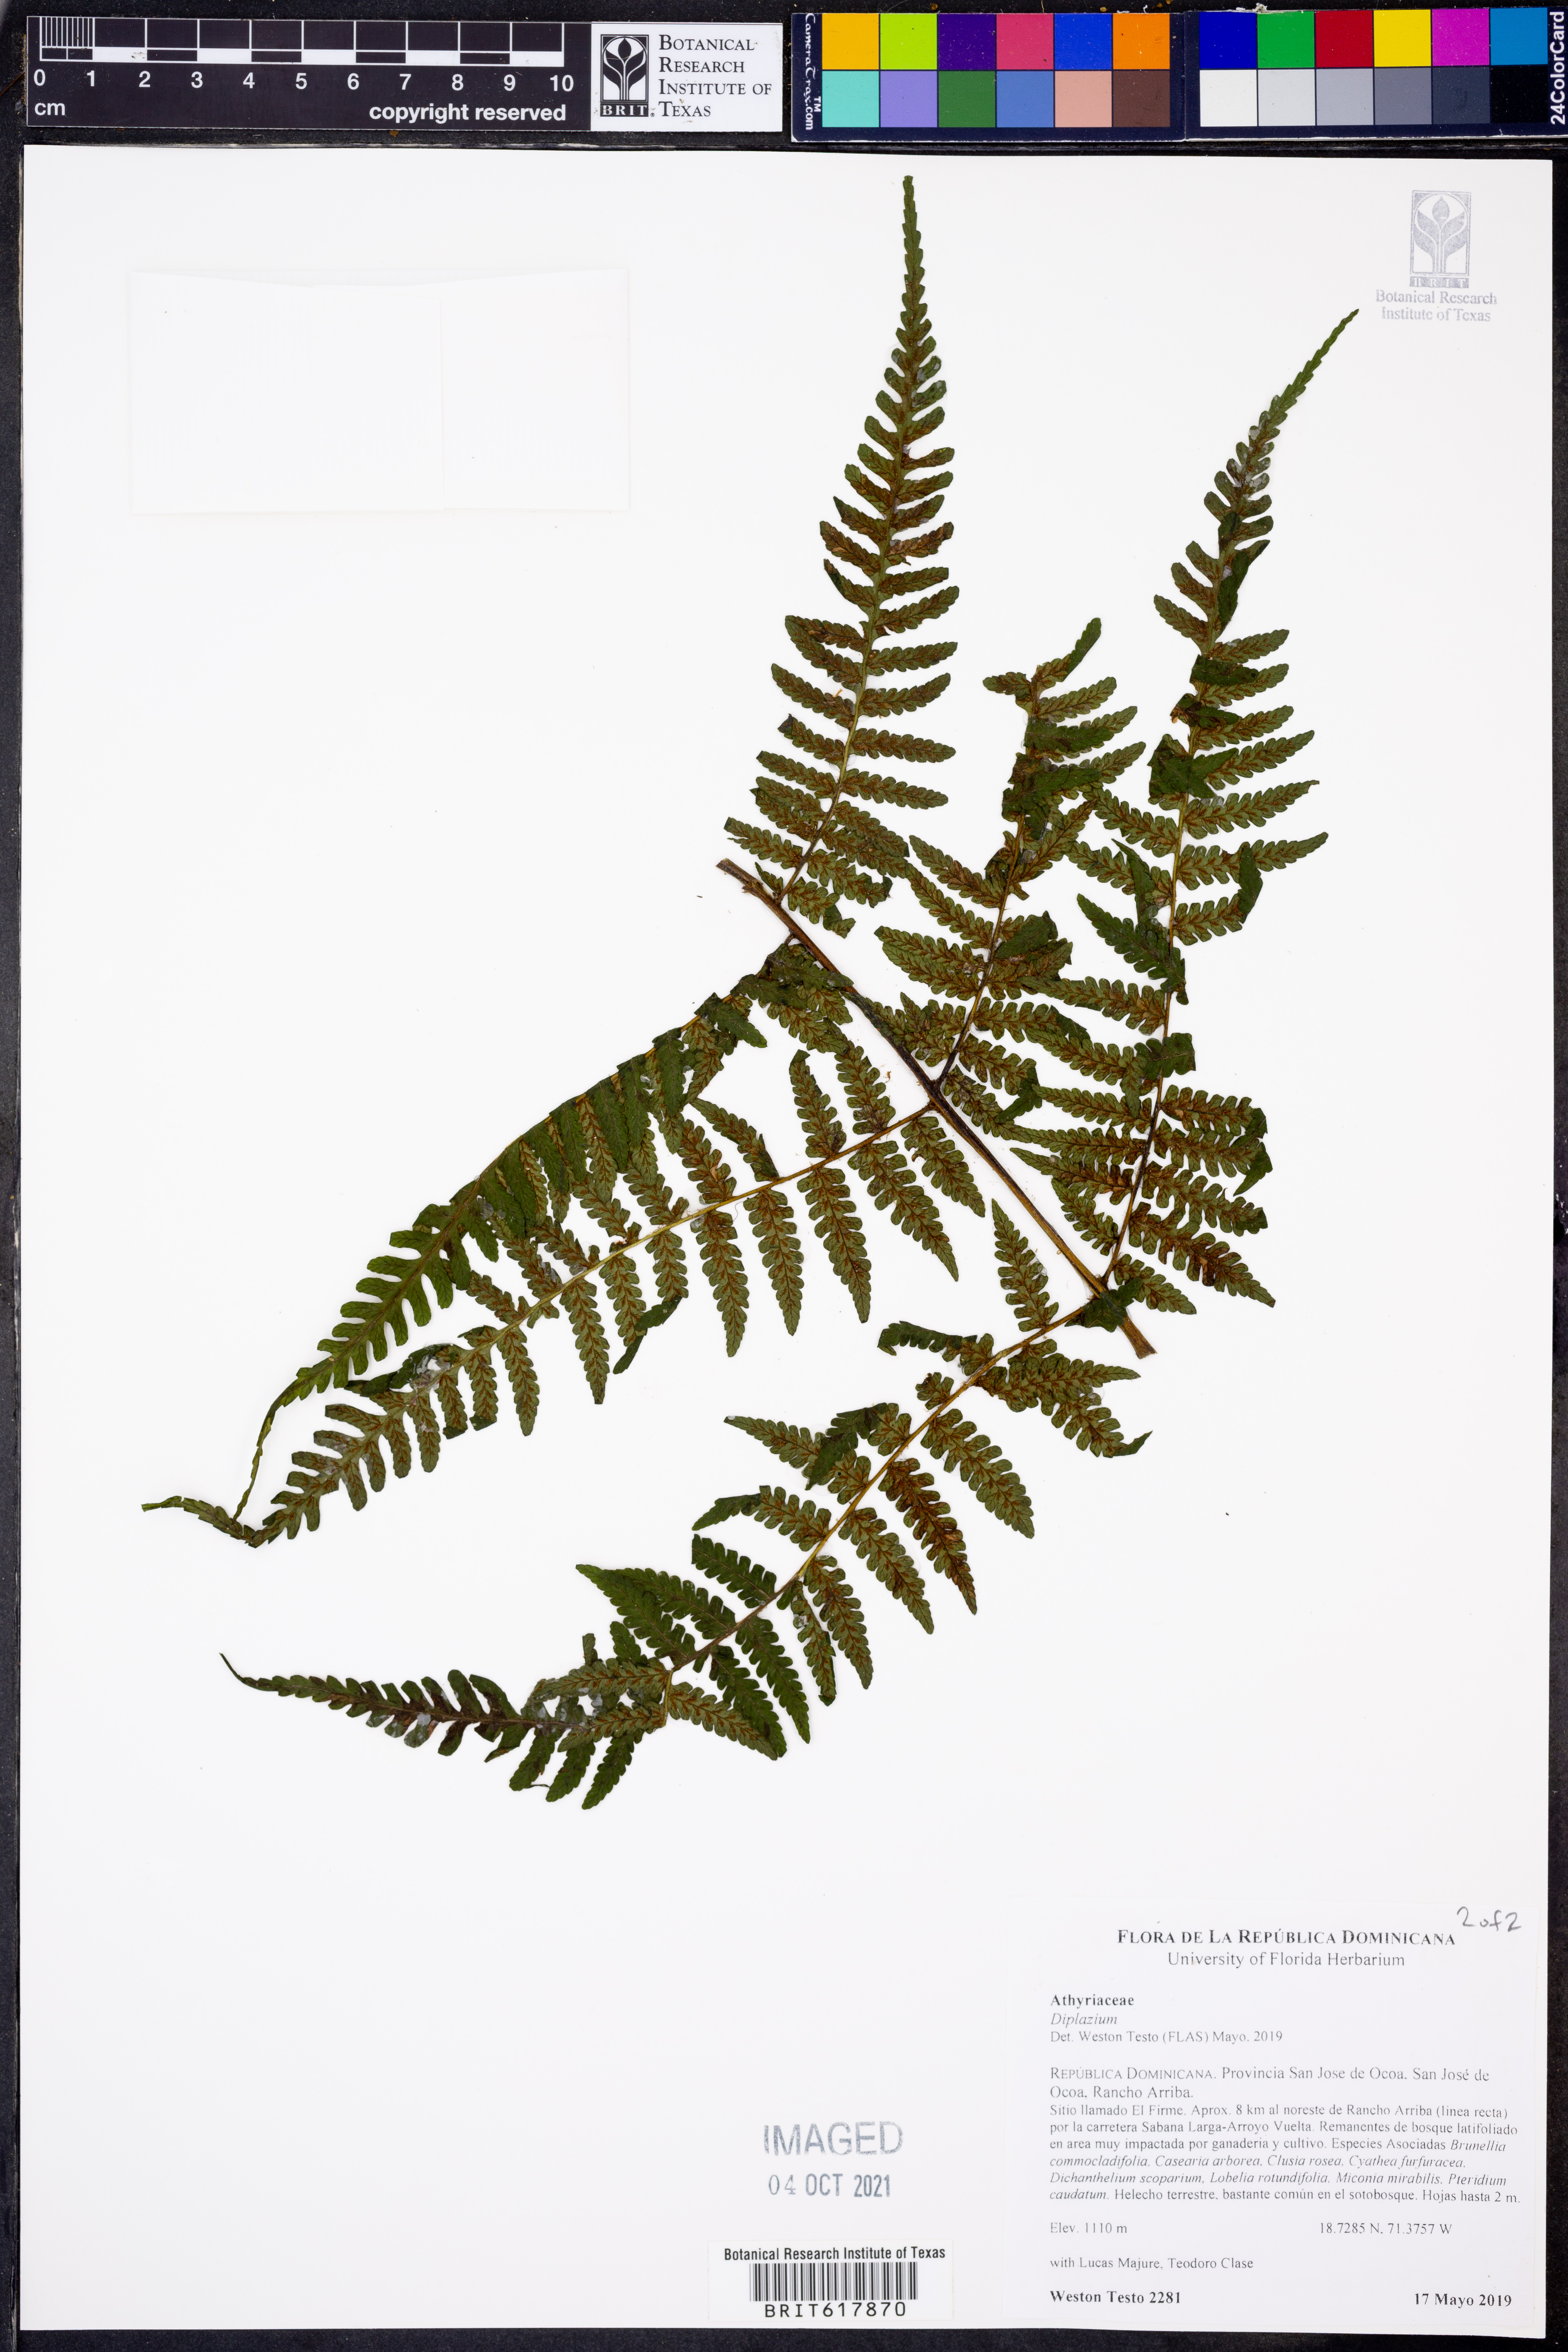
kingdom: Plantae
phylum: Tracheophyta
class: Polypodiopsida
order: Polypodiales
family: Athyriaceae
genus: Diplazium
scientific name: Diplazium
